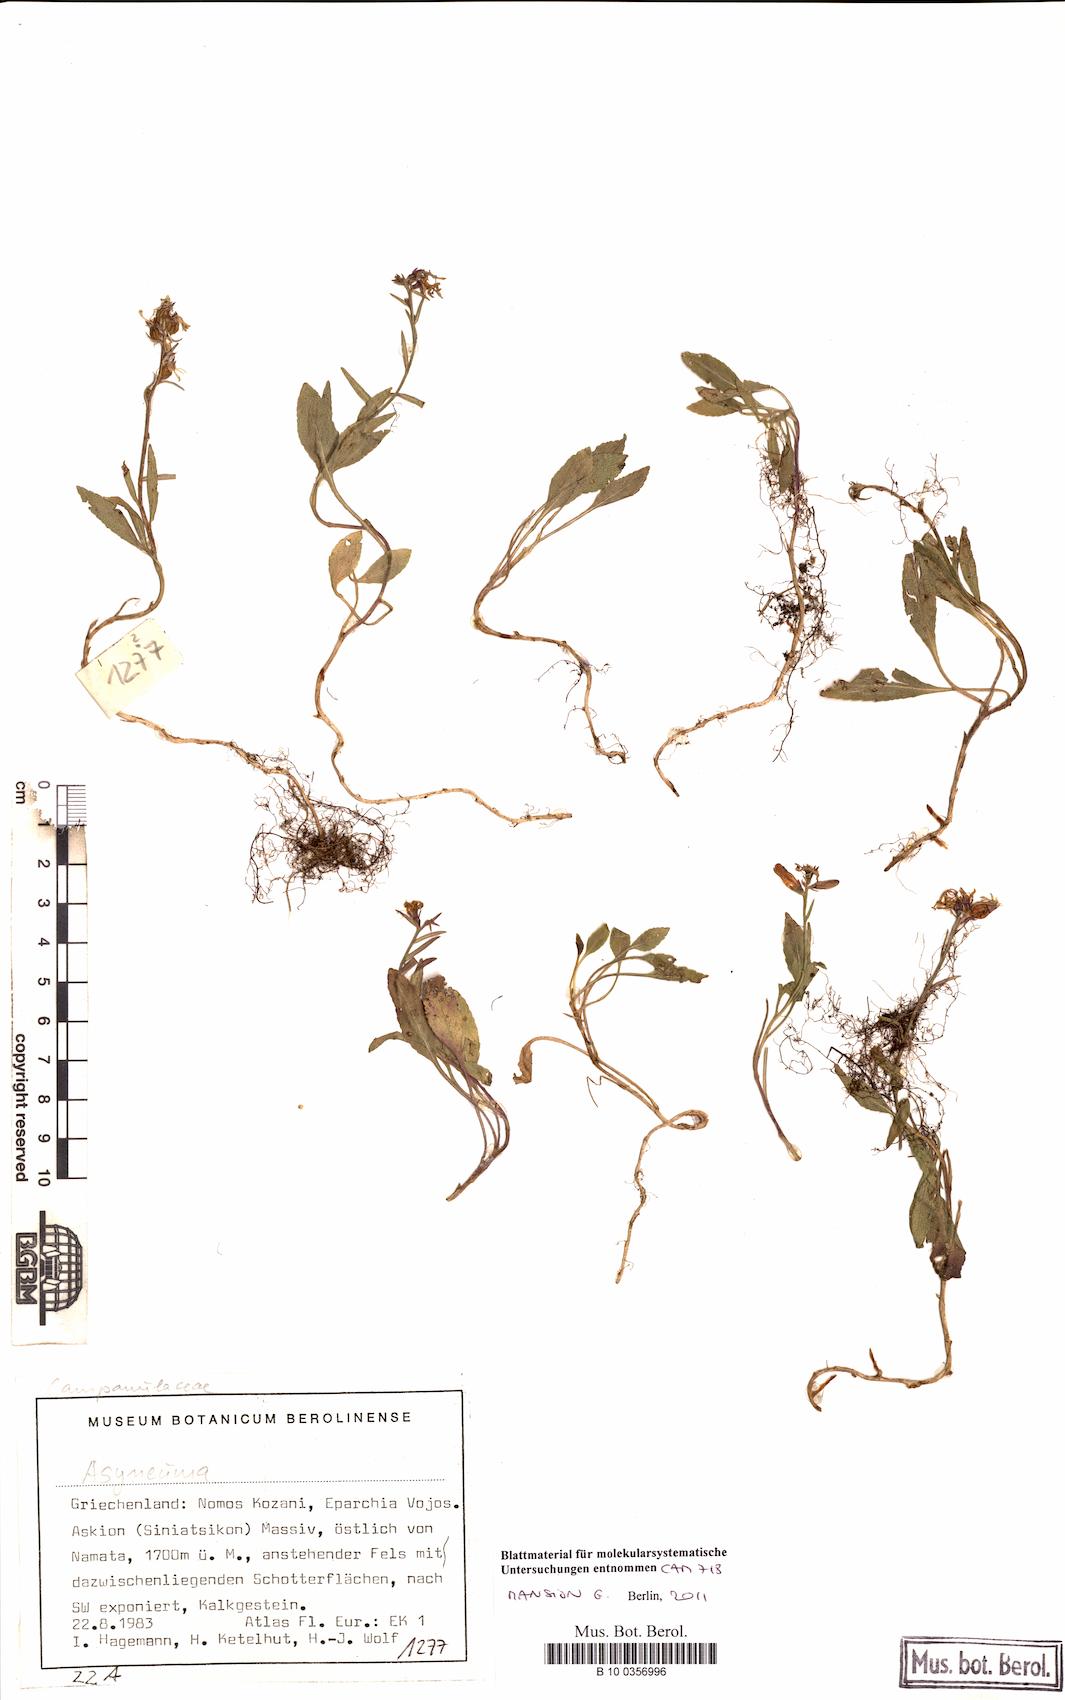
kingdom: Plantae
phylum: Tracheophyta
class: Magnoliopsida
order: Asterales
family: Campanulaceae
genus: Asyneuma
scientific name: Asyneuma
